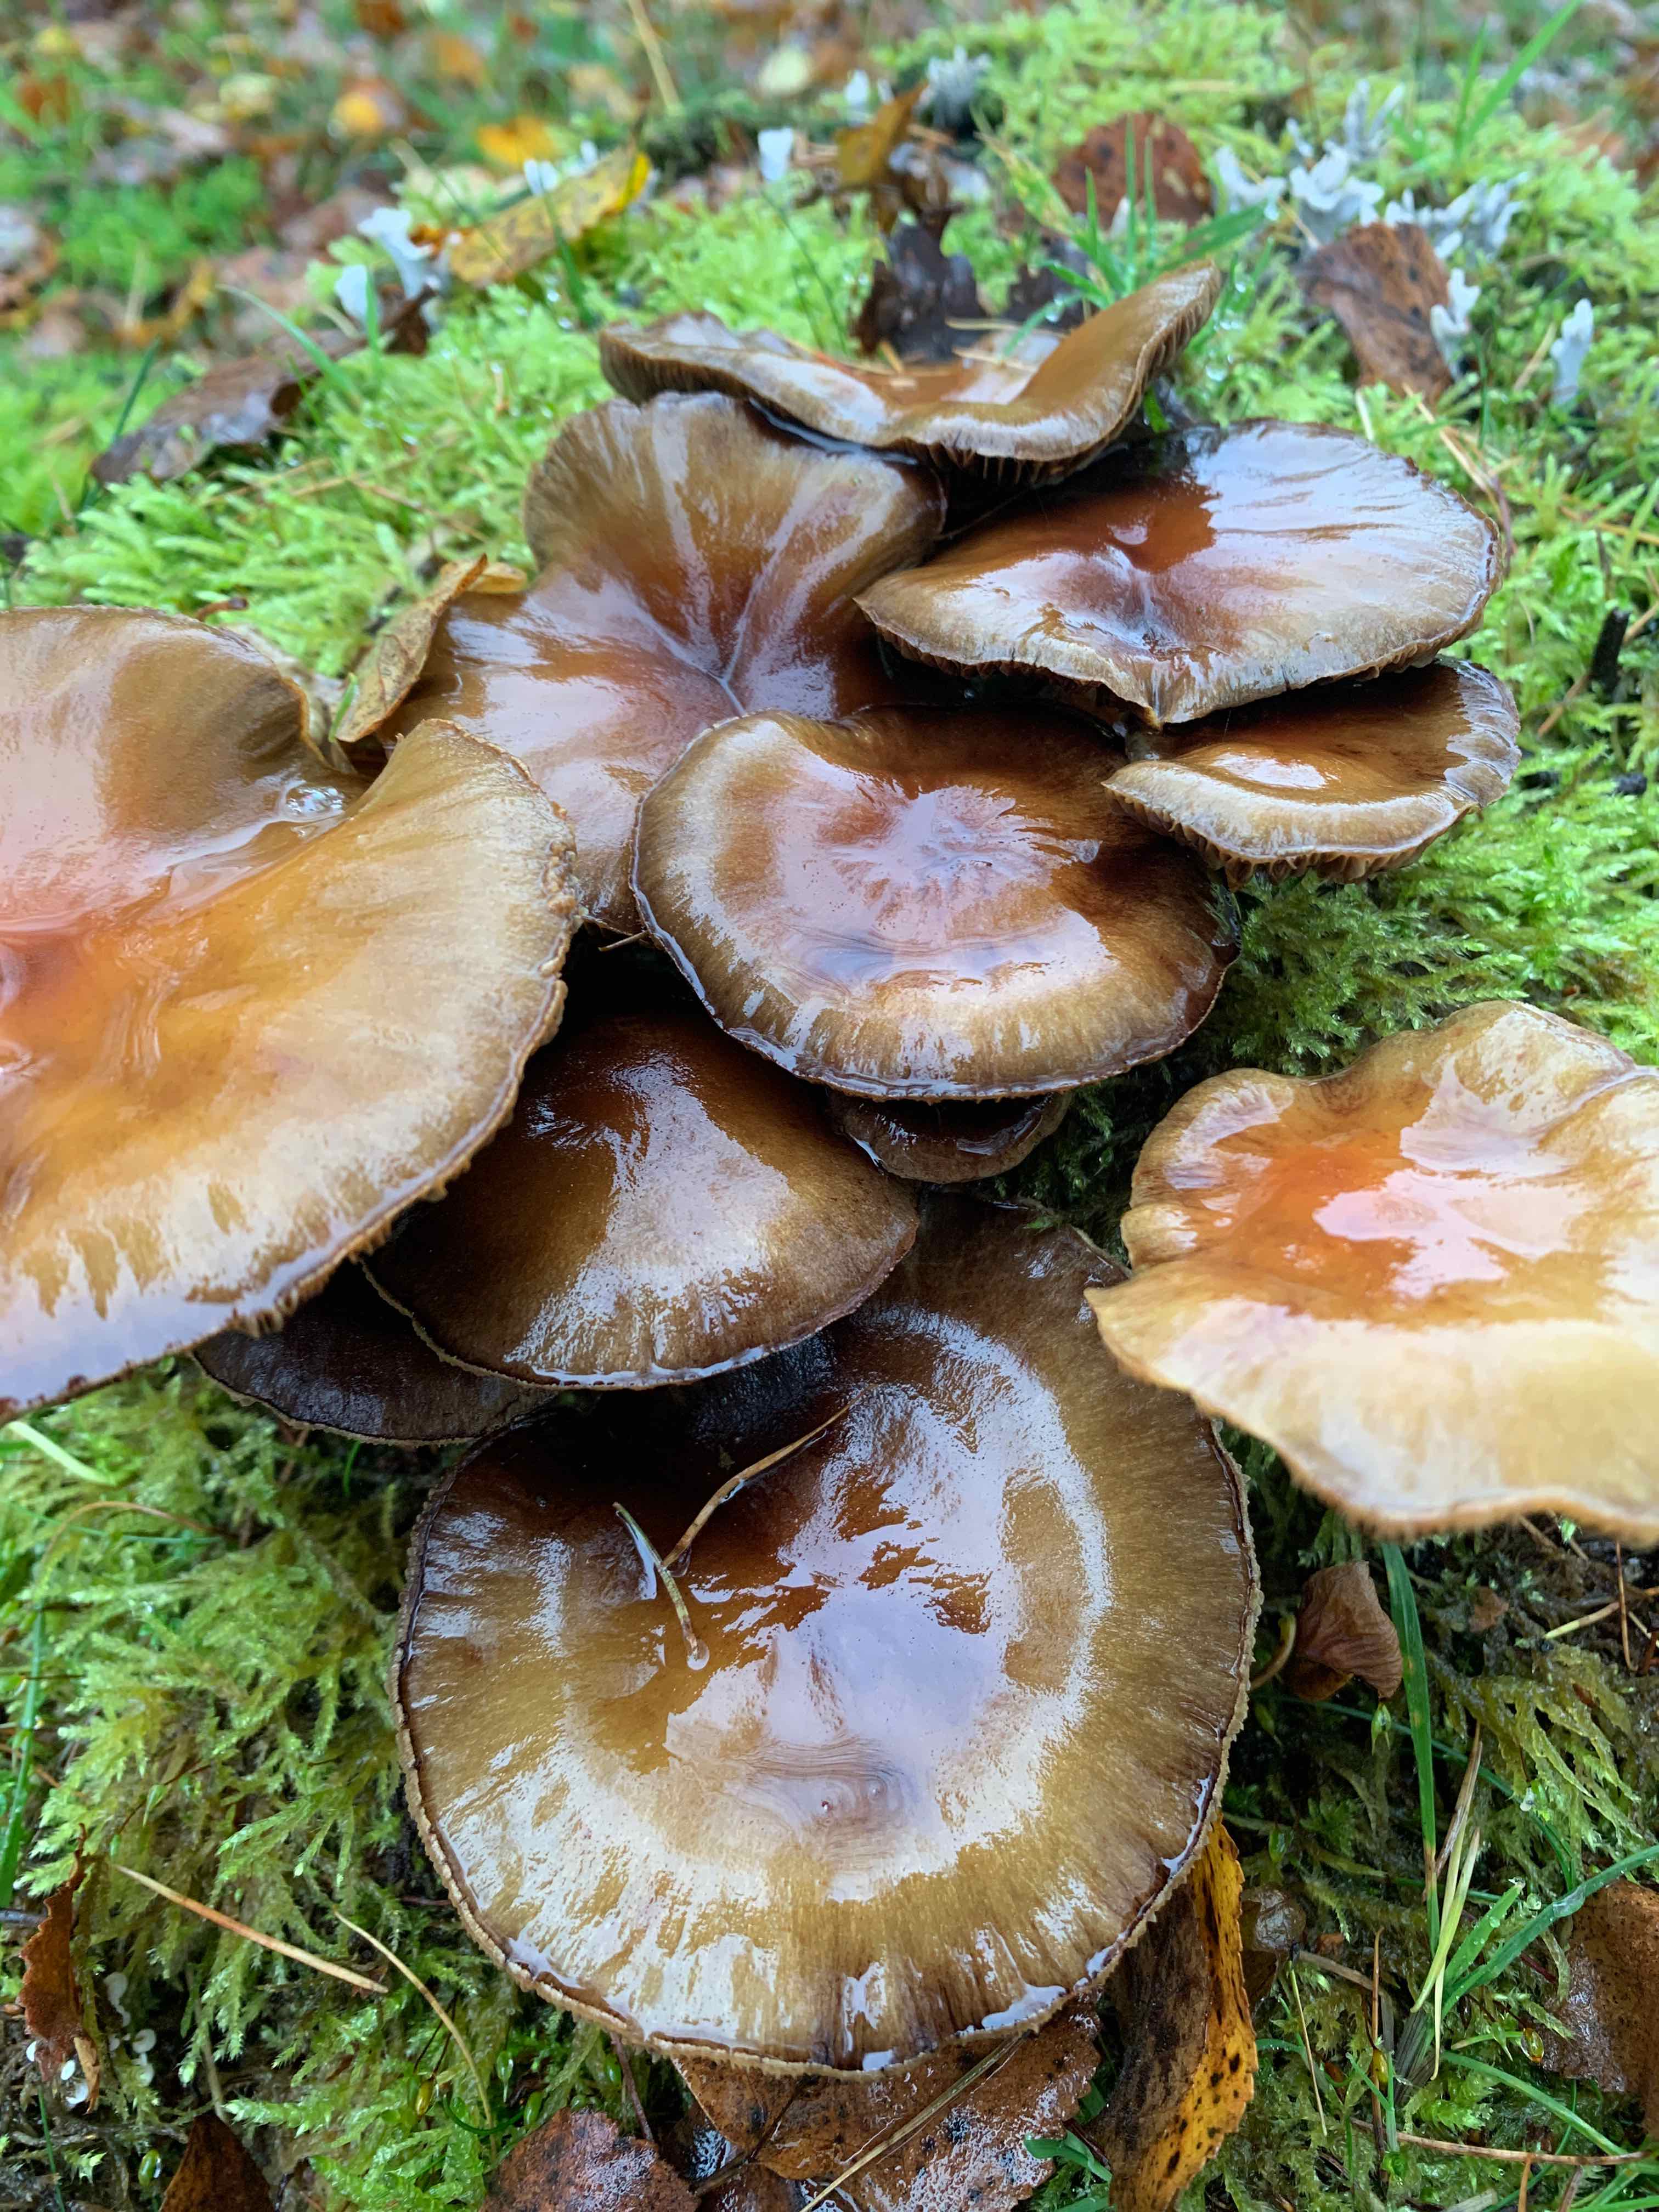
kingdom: Fungi
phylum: Basidiomycota
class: Agaricomycetes
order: Agaricales
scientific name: Agaricales
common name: champignonordenen
